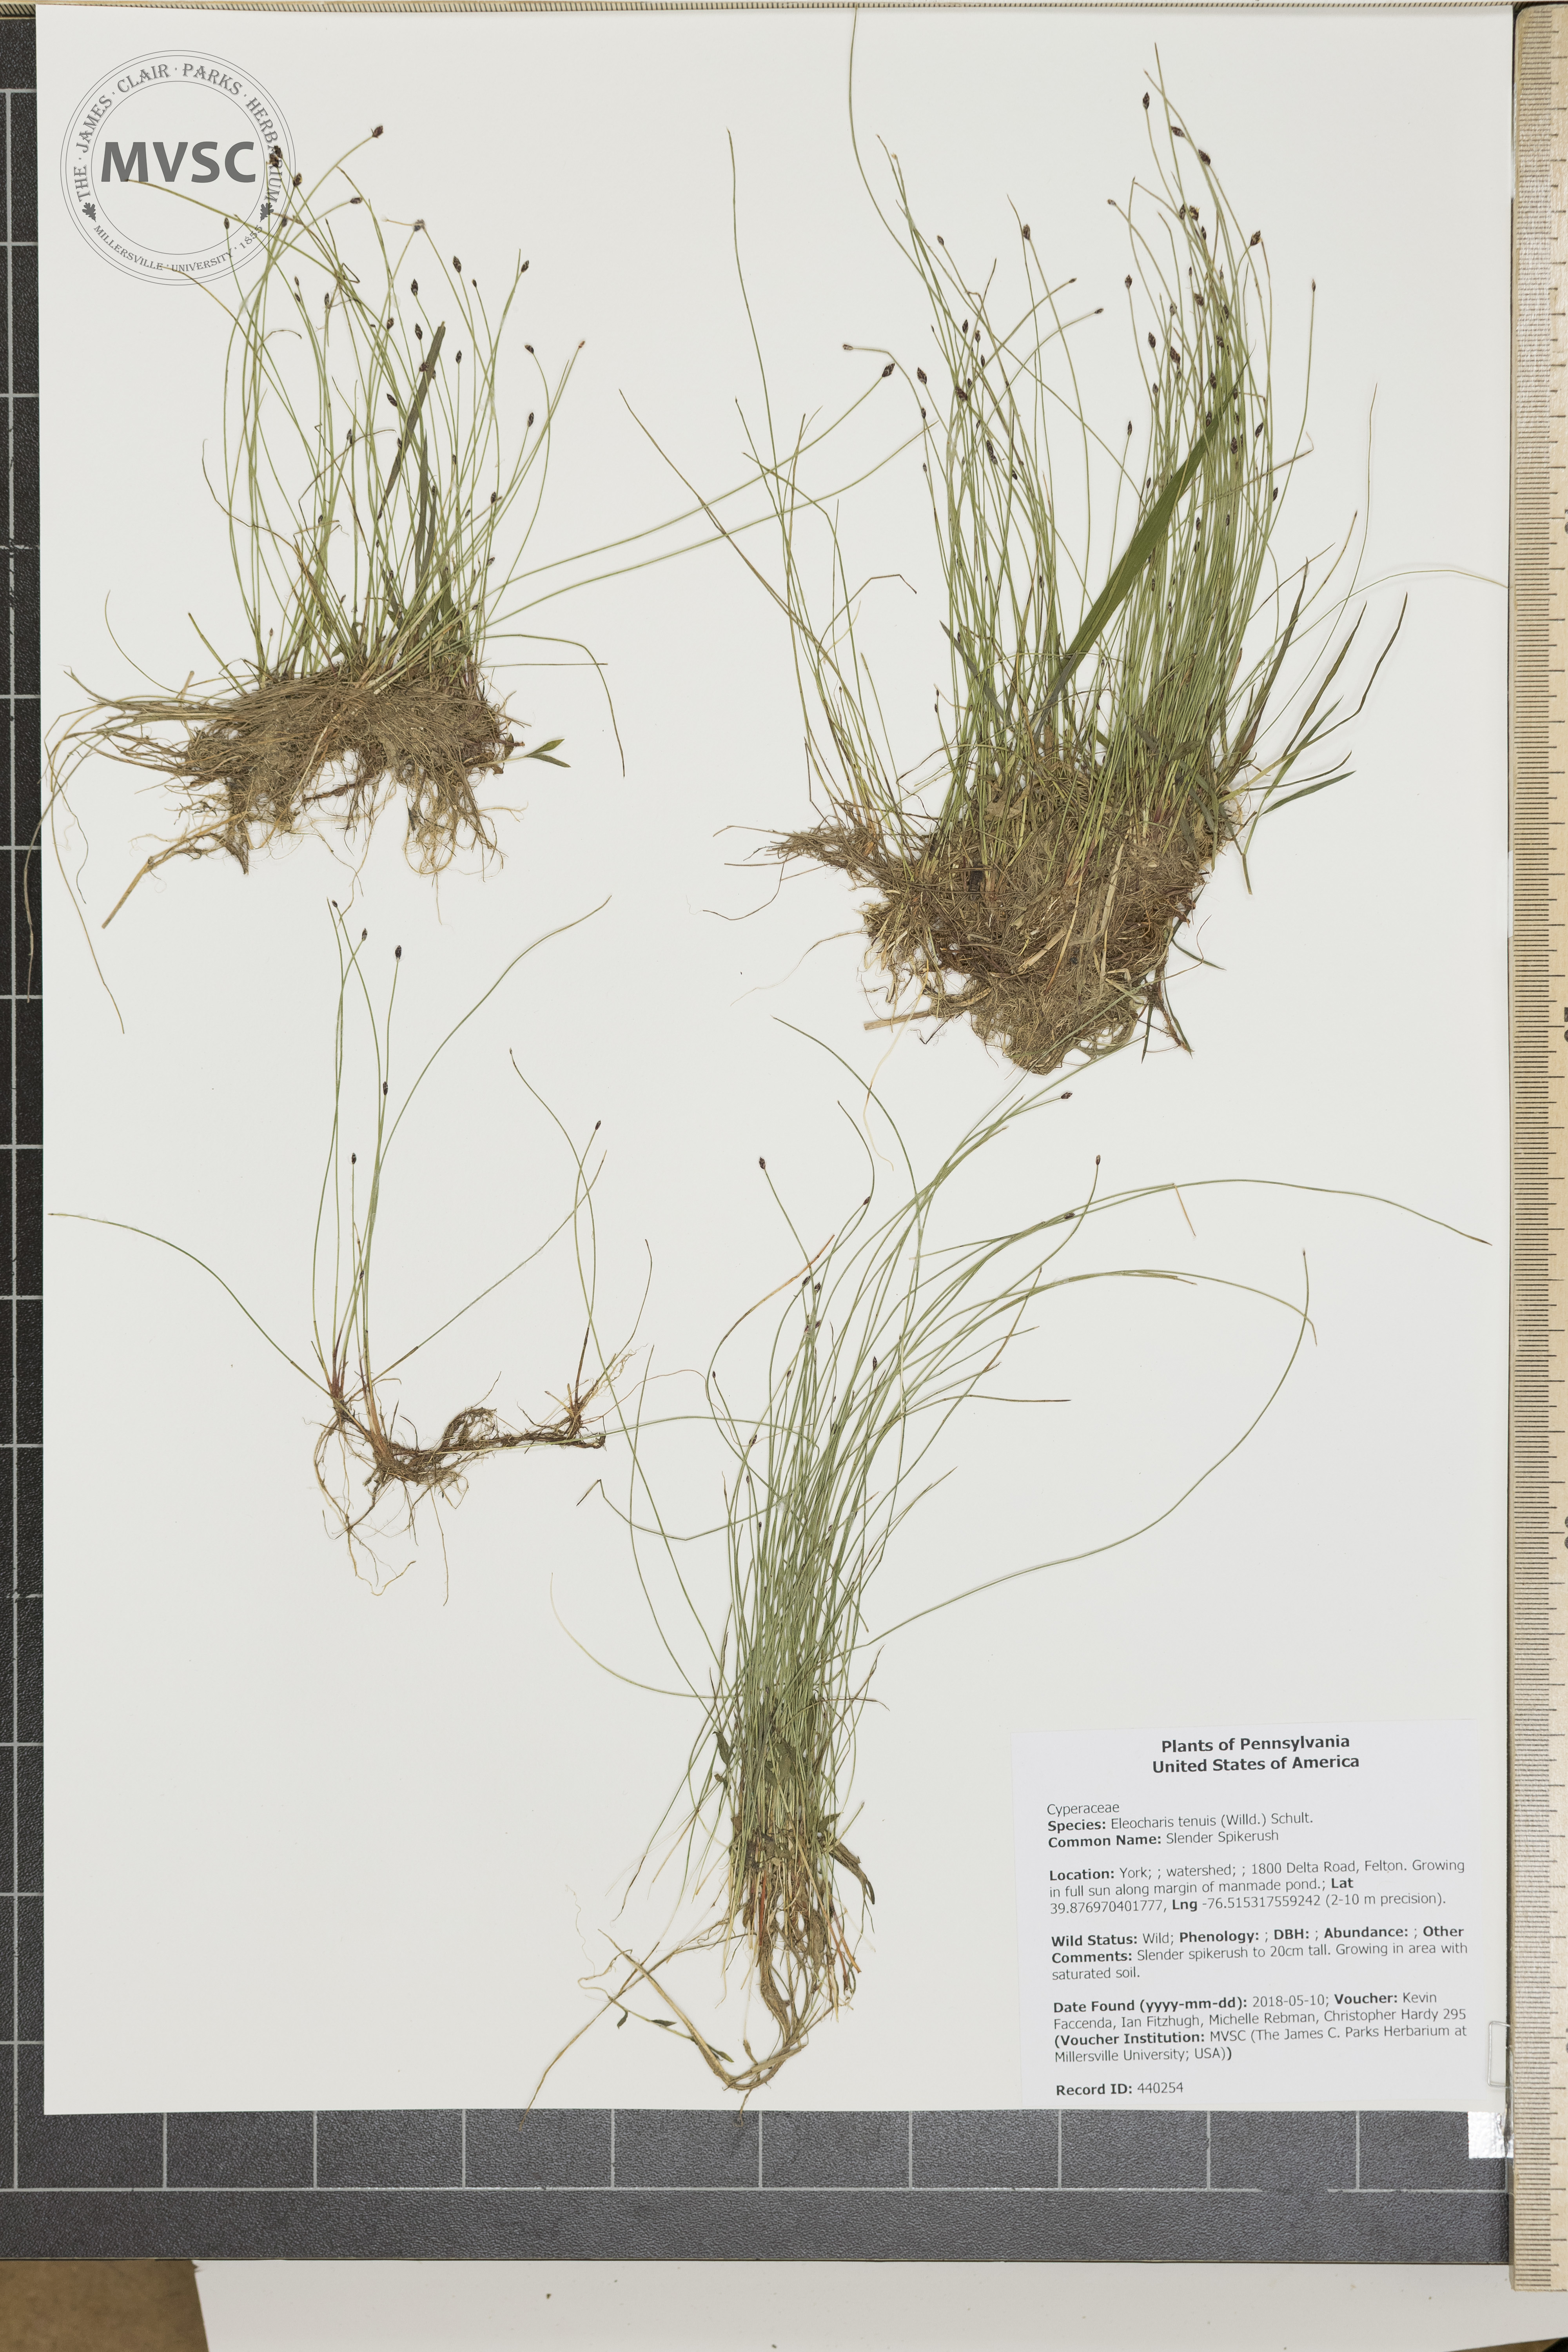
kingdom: Plantae
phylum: Tracheophyta
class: Liliopsida
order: Poales
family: Cyperaceae
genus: Eleocharis
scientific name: Eleocharis tenuis
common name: Slender Spikerush
